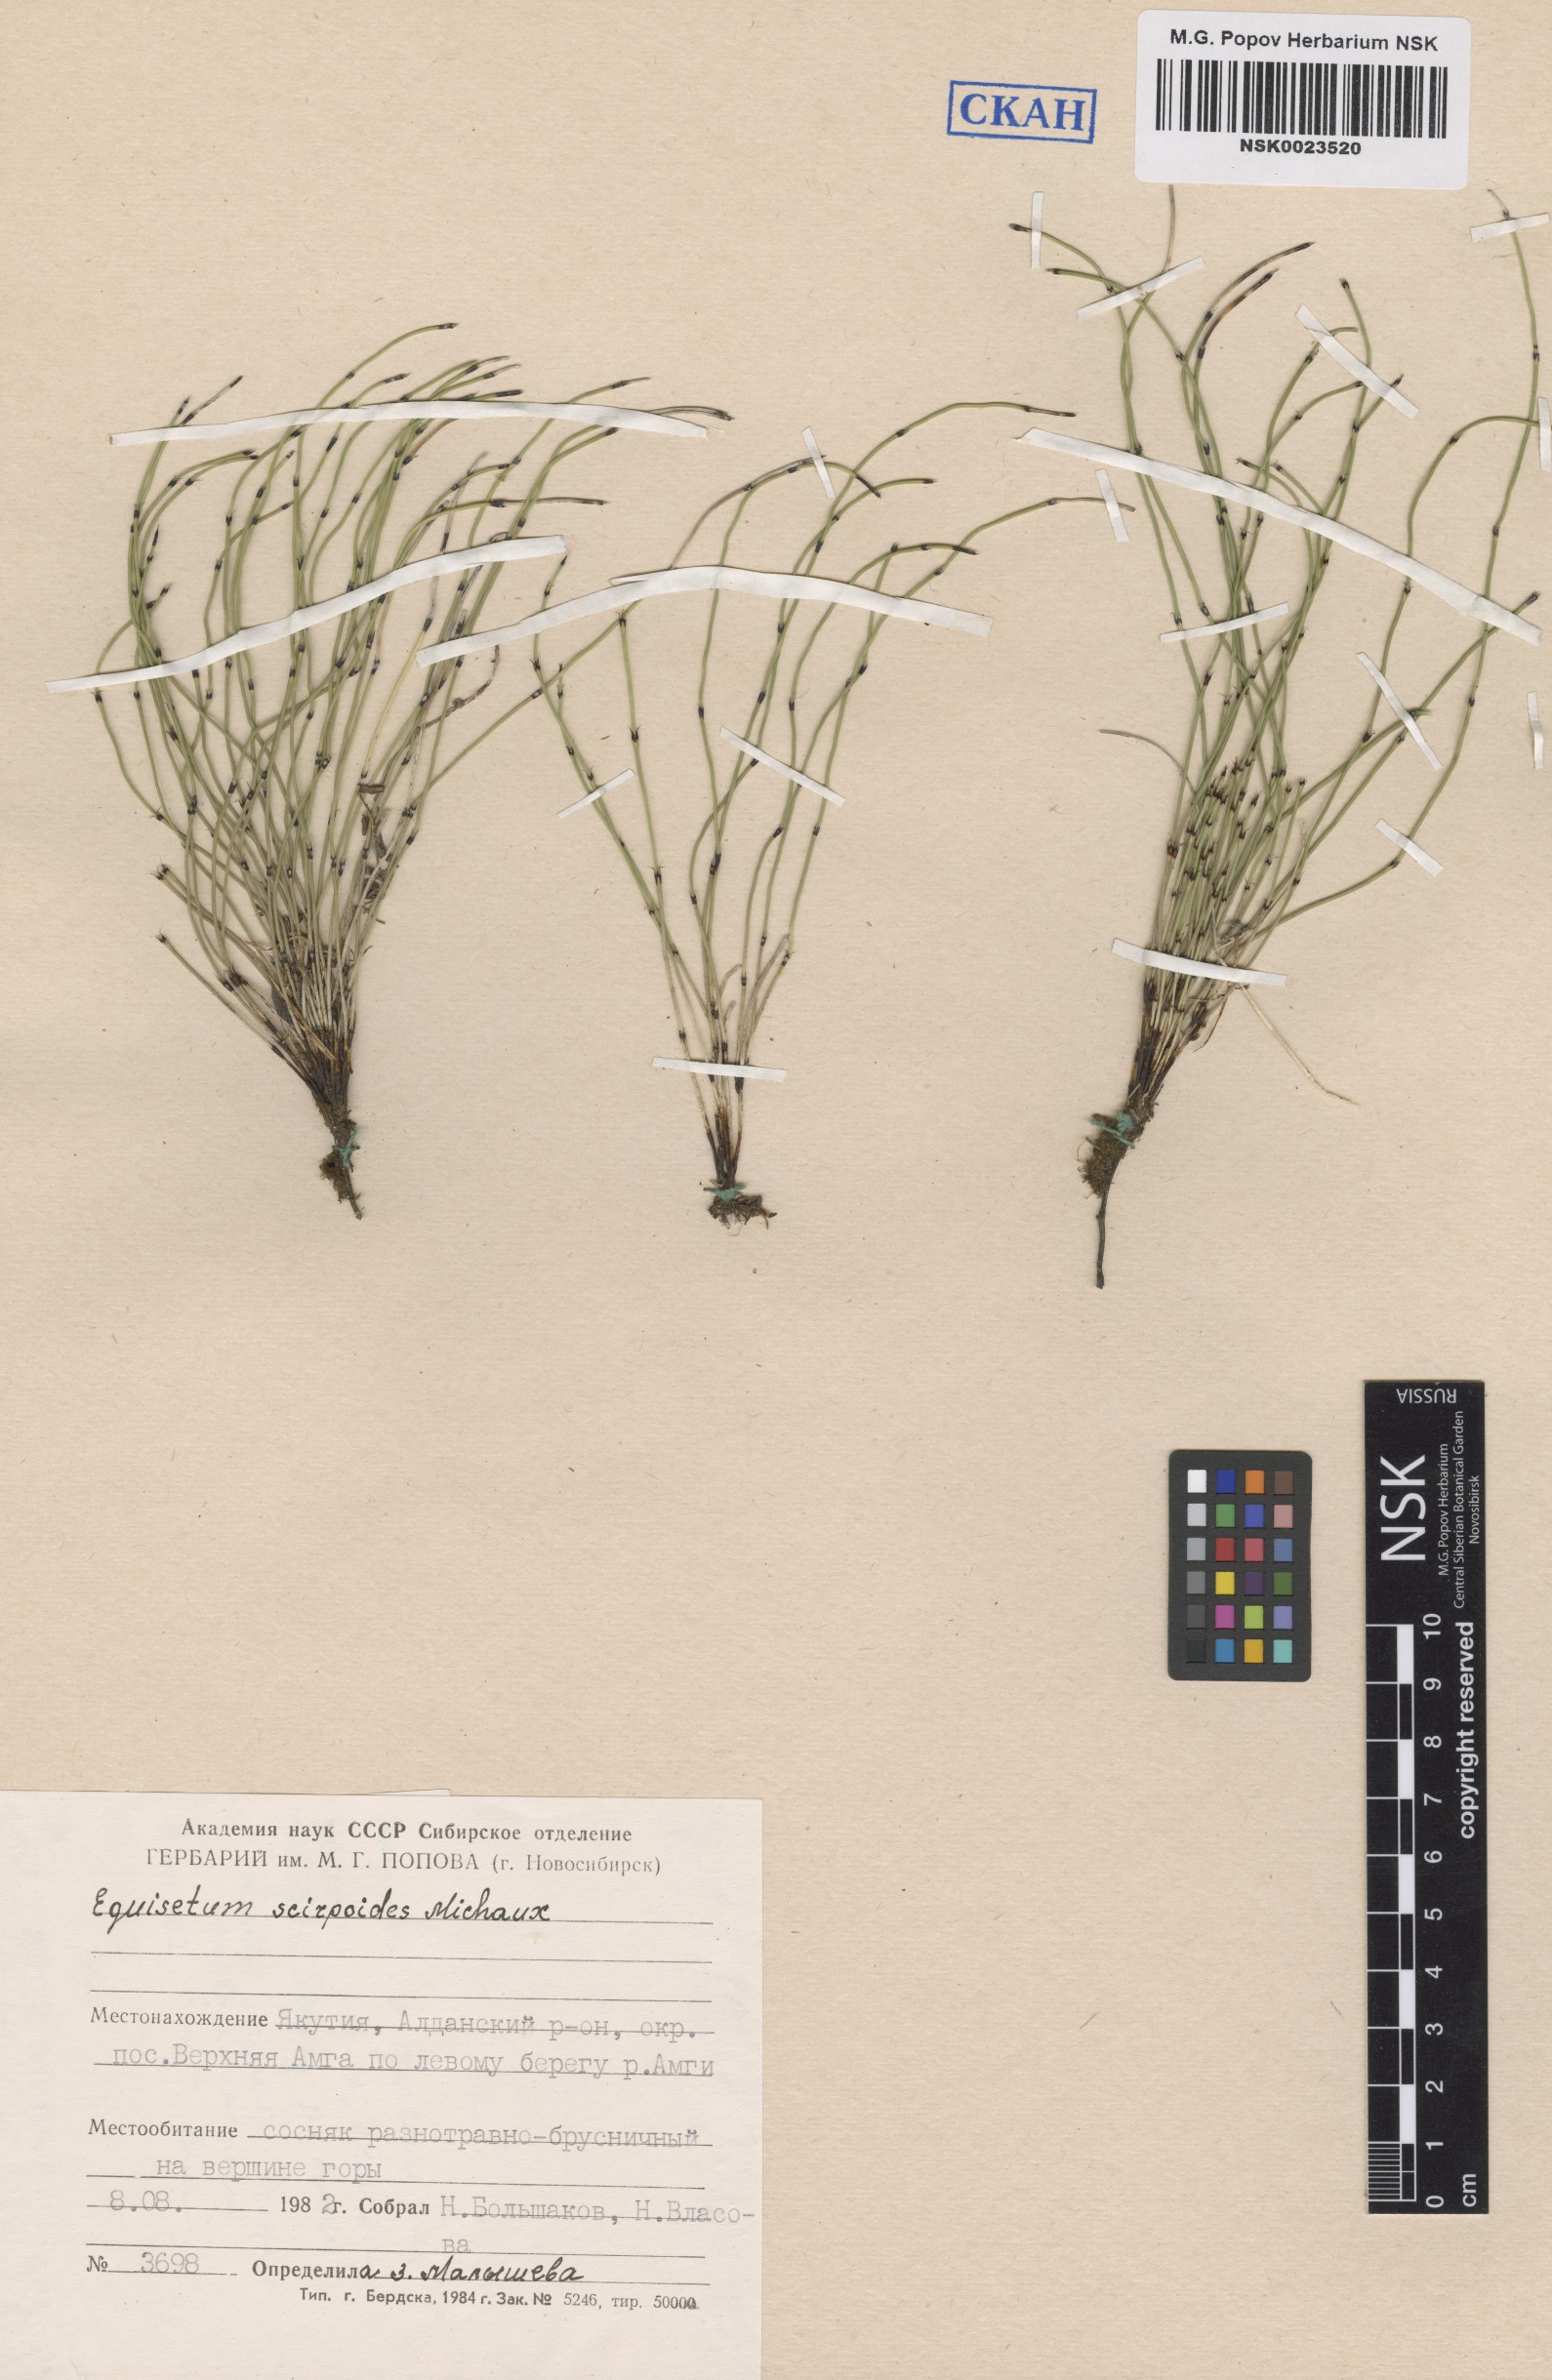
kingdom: Plantae
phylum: Tracheophyta
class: Polypodiopsida
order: Equisetales
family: Equisetaceae
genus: Equisetum
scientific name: Equisetum scirpoides
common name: Delicate horsetail
